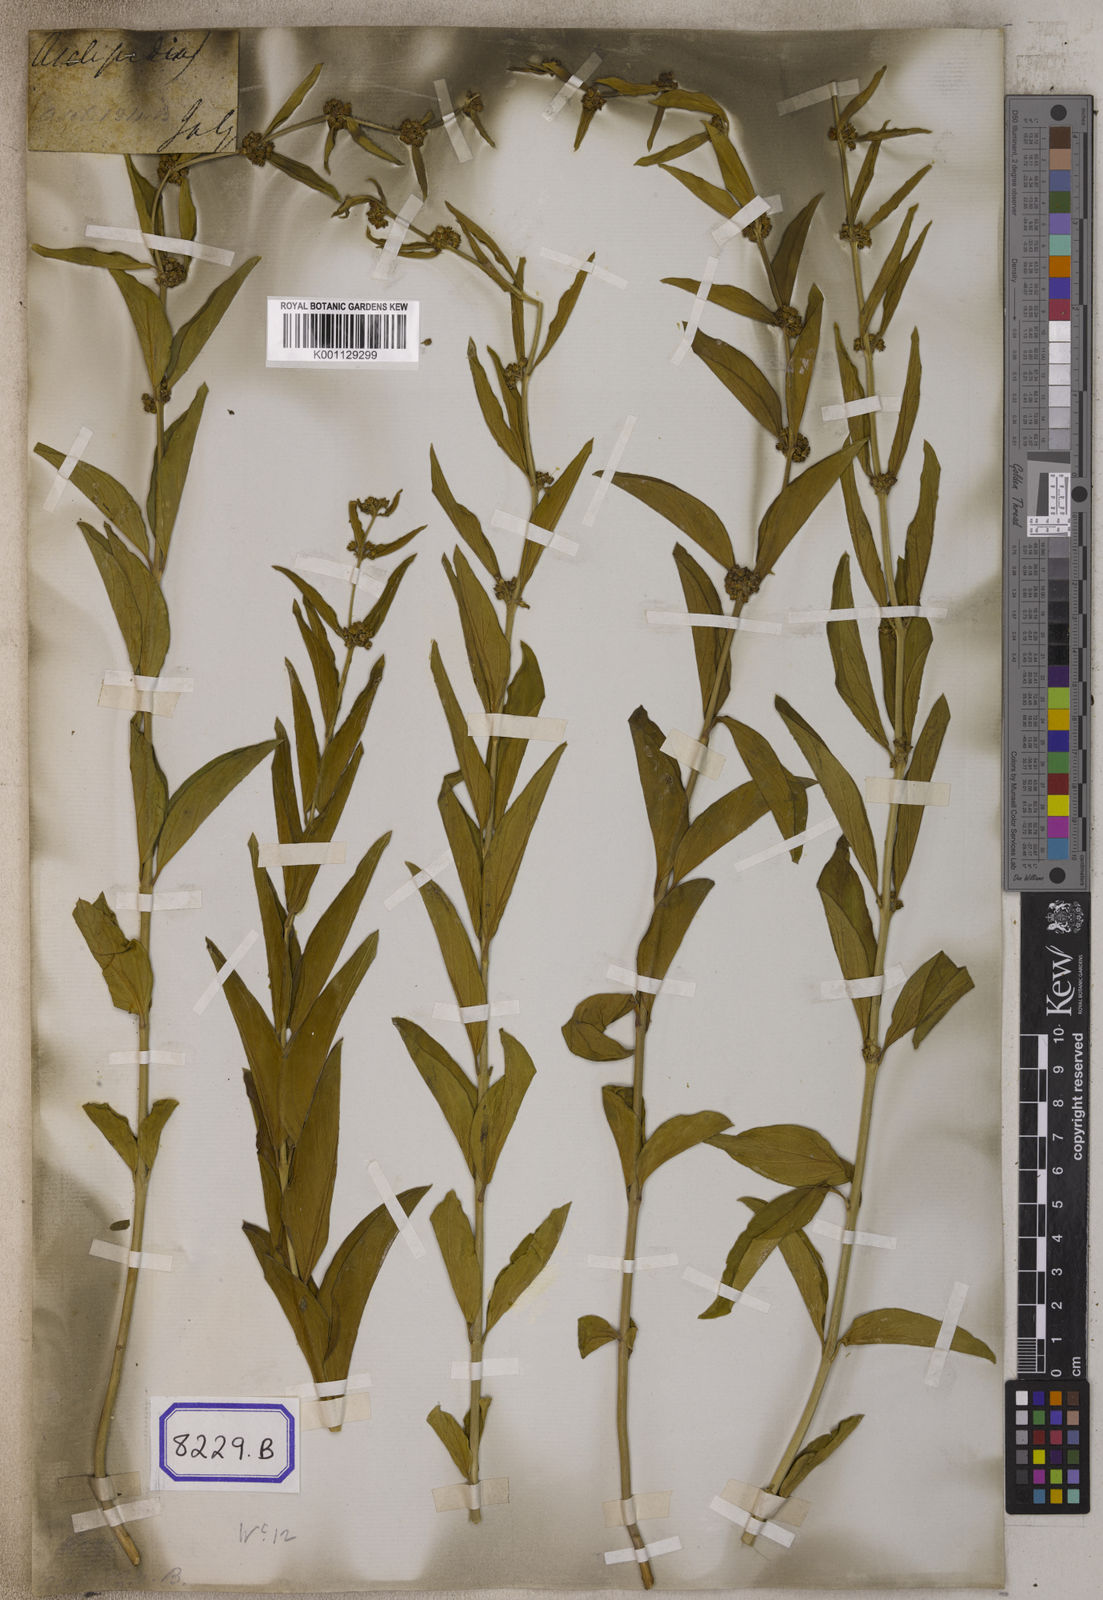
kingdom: Plantae
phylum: Tracheophyta
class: Magnoliopsida
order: Gentianales
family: Apocynaceae
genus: Cynanchum
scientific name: Cynanchum
